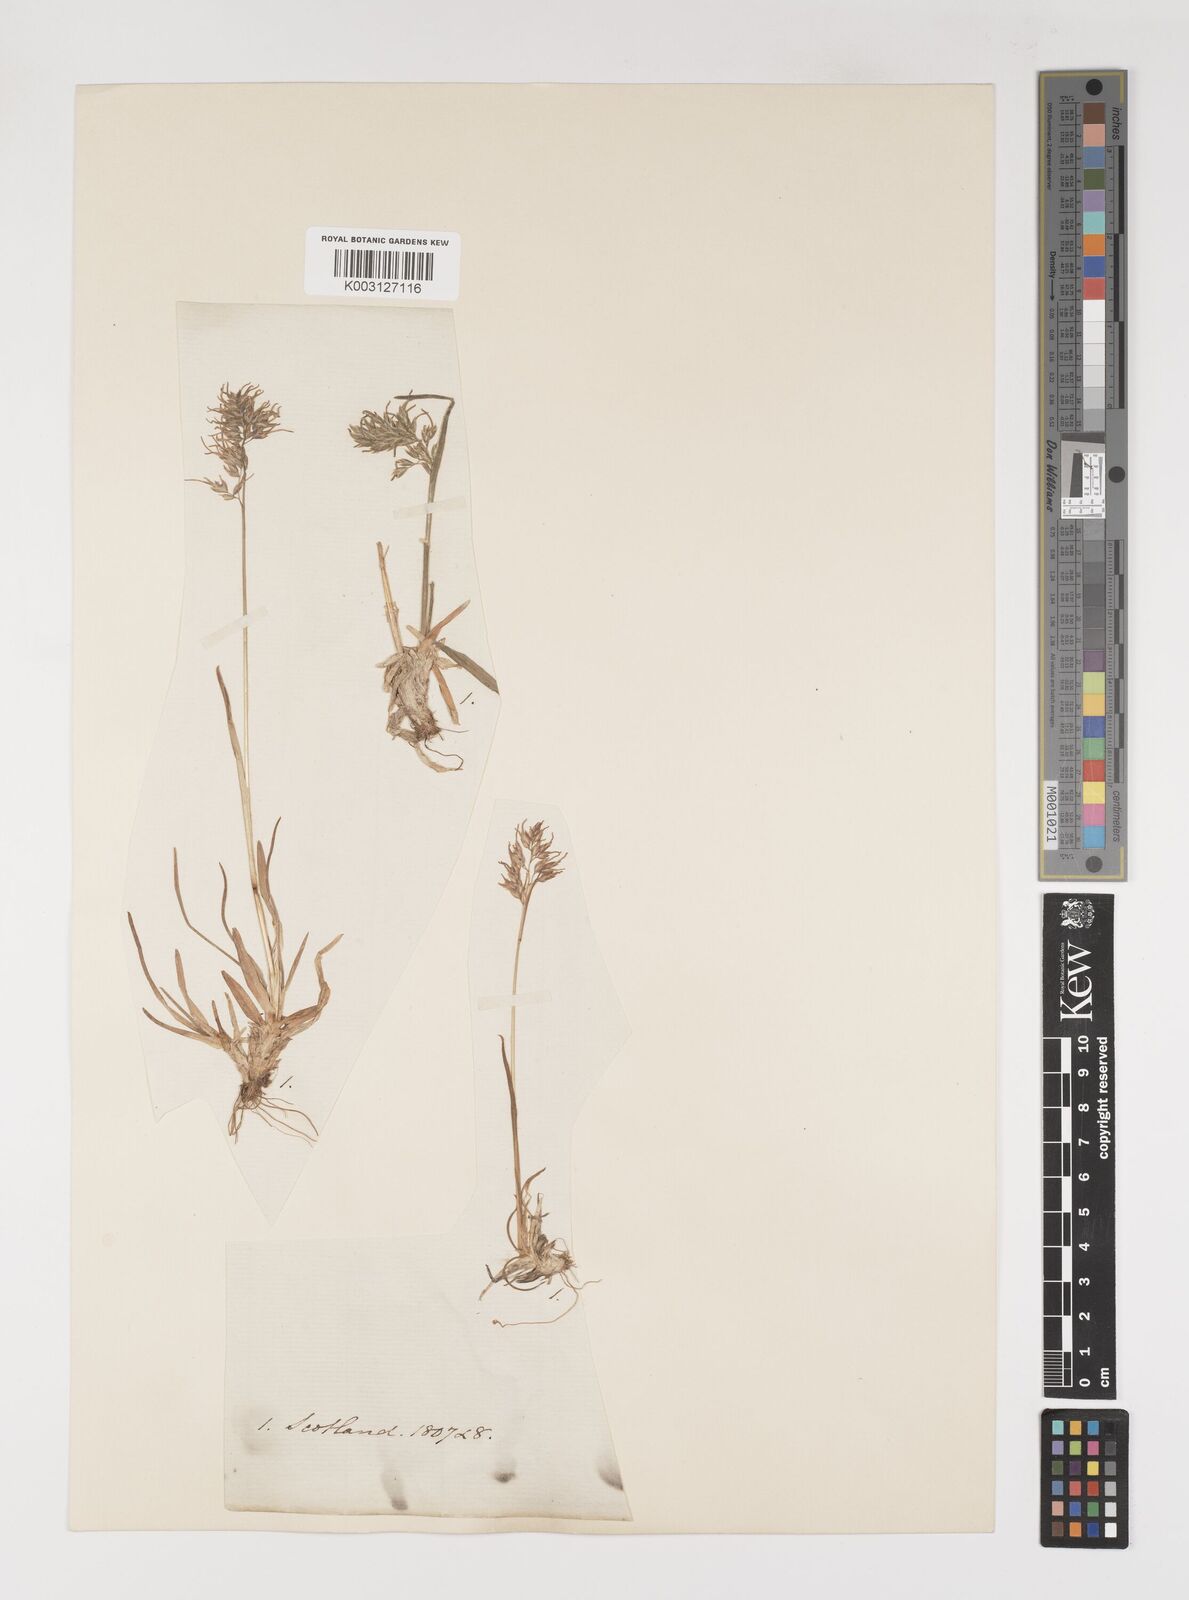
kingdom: Plantae
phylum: Tracheophyta
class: Liliopsida
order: Poales
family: Poaceae
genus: Poa
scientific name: Poa alpina
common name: Alpine bluegrass
